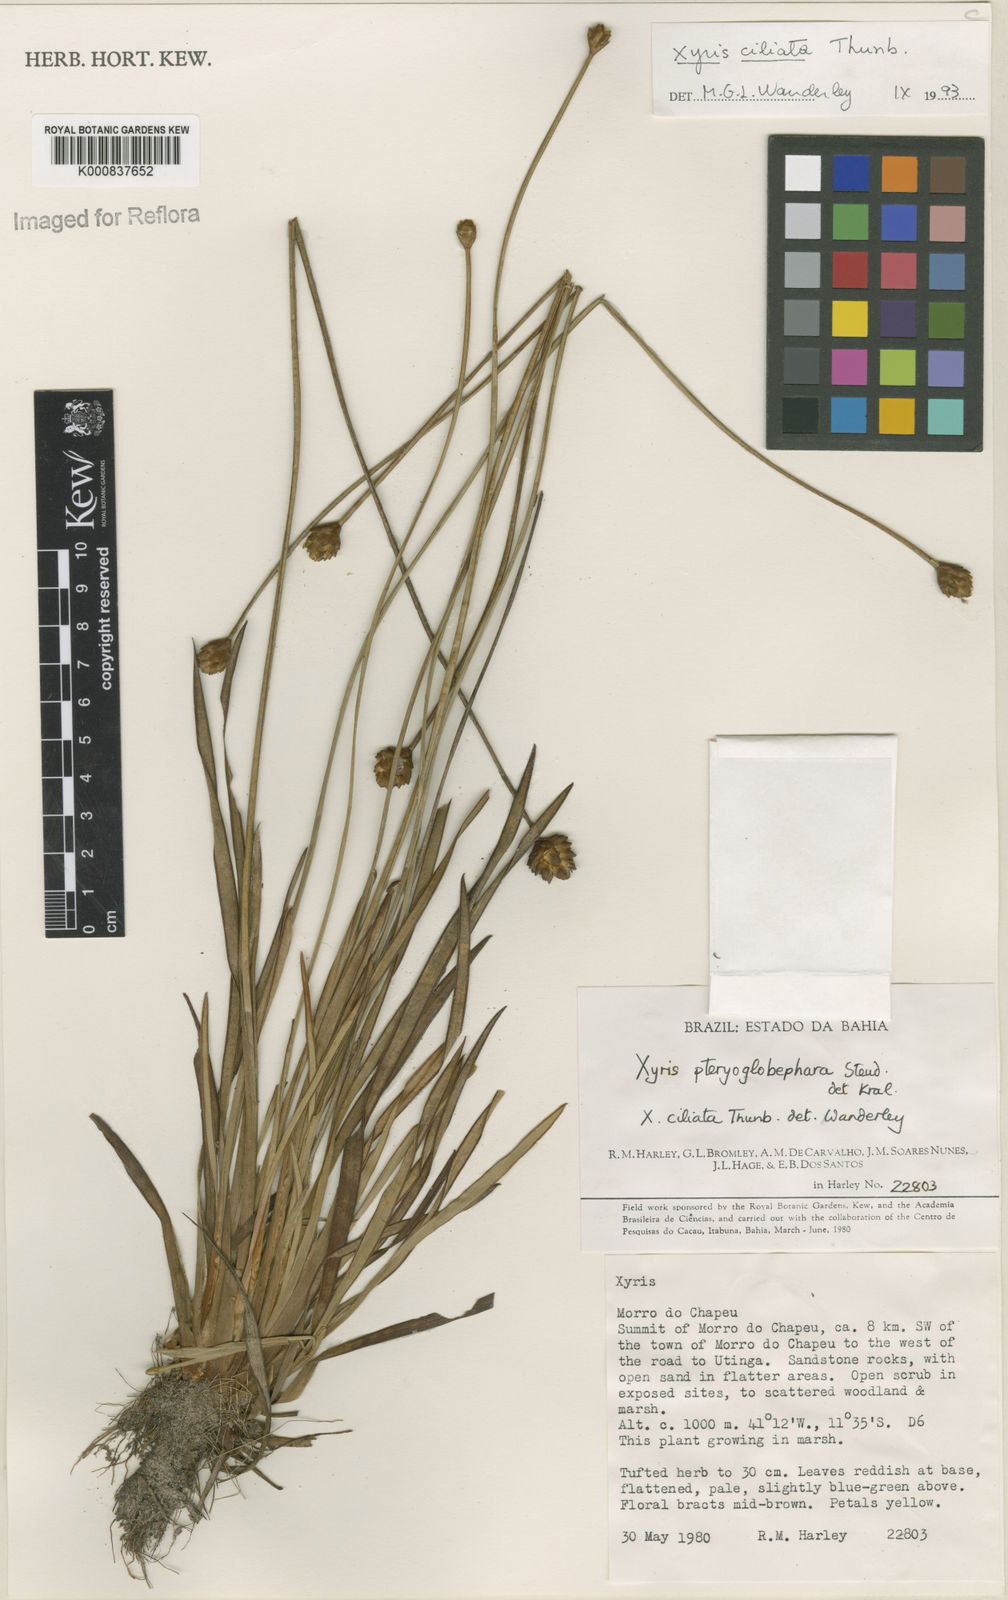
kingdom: Plantae
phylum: Tracheophyta
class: Liliopsida
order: Poales
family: Xyridaceae
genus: Xyris
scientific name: Xyris ciliata
